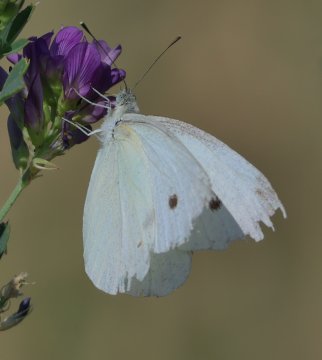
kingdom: Animalia
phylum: Arthropoda
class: Insecta
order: Lepidoptera
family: Pieridae
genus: Pieris
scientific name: Pieris rapae
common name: Cabbage White
